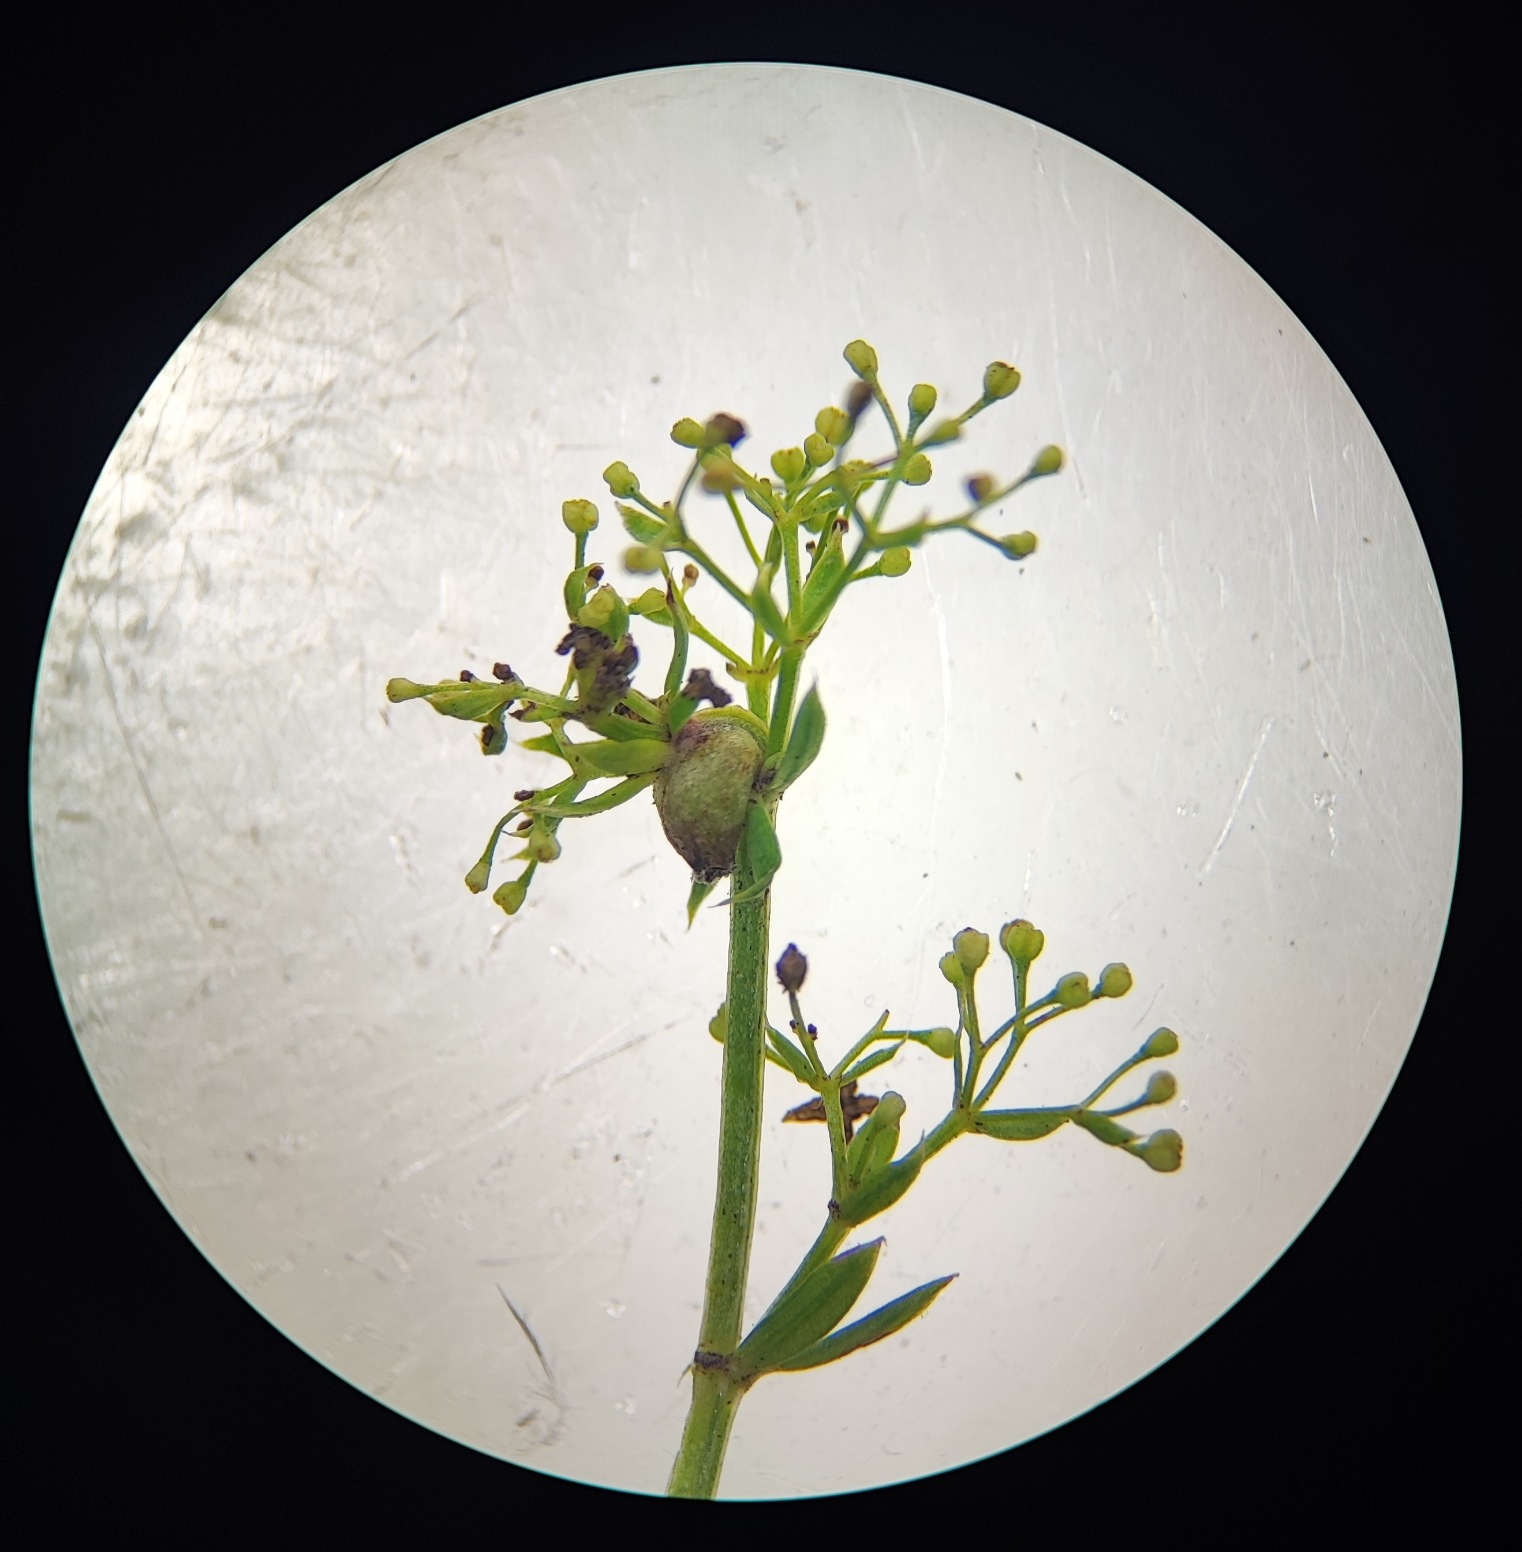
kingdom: Animalia
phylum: Arthropoda
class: Insecta
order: Diptera
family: Cecidomyiidae
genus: Geocrypta
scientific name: Geocrypta galii
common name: Snerrestængelgalmyg
